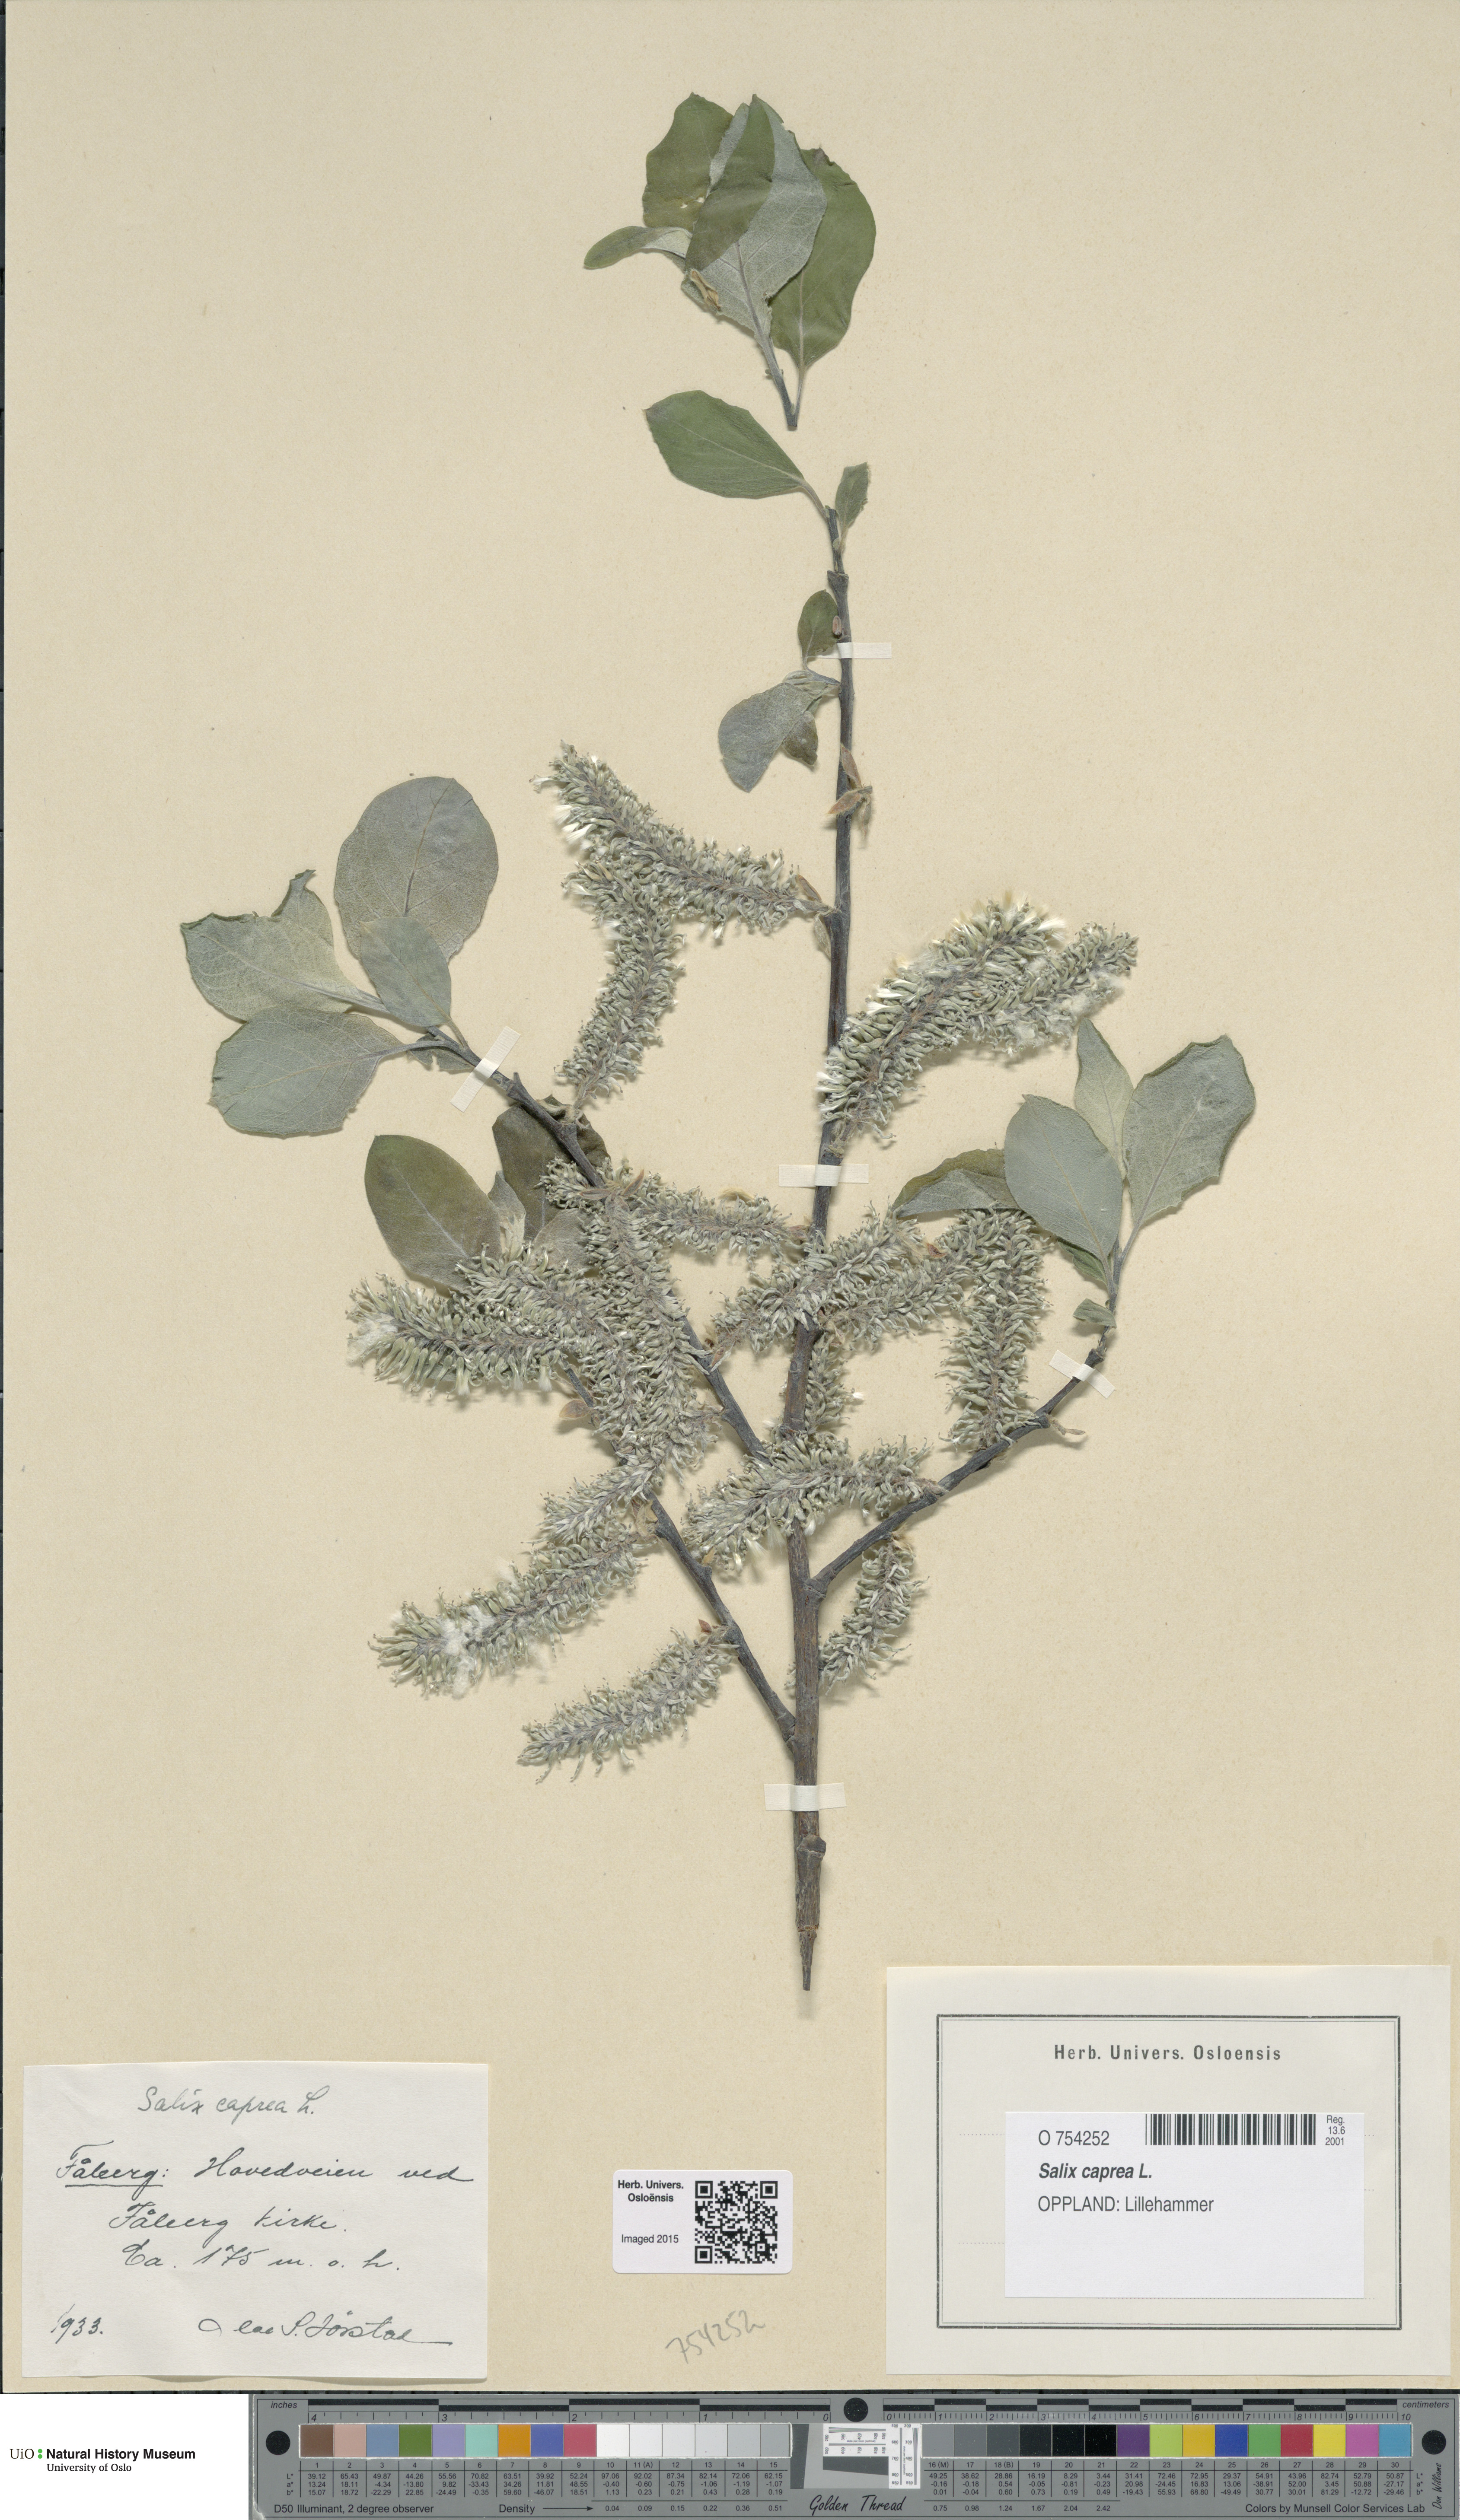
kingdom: Plantae
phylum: Tracheophyta
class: Magnoliopsida
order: Malpighiales
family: Salicaceae
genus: Salix
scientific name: Salix caprea
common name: Goat willow
